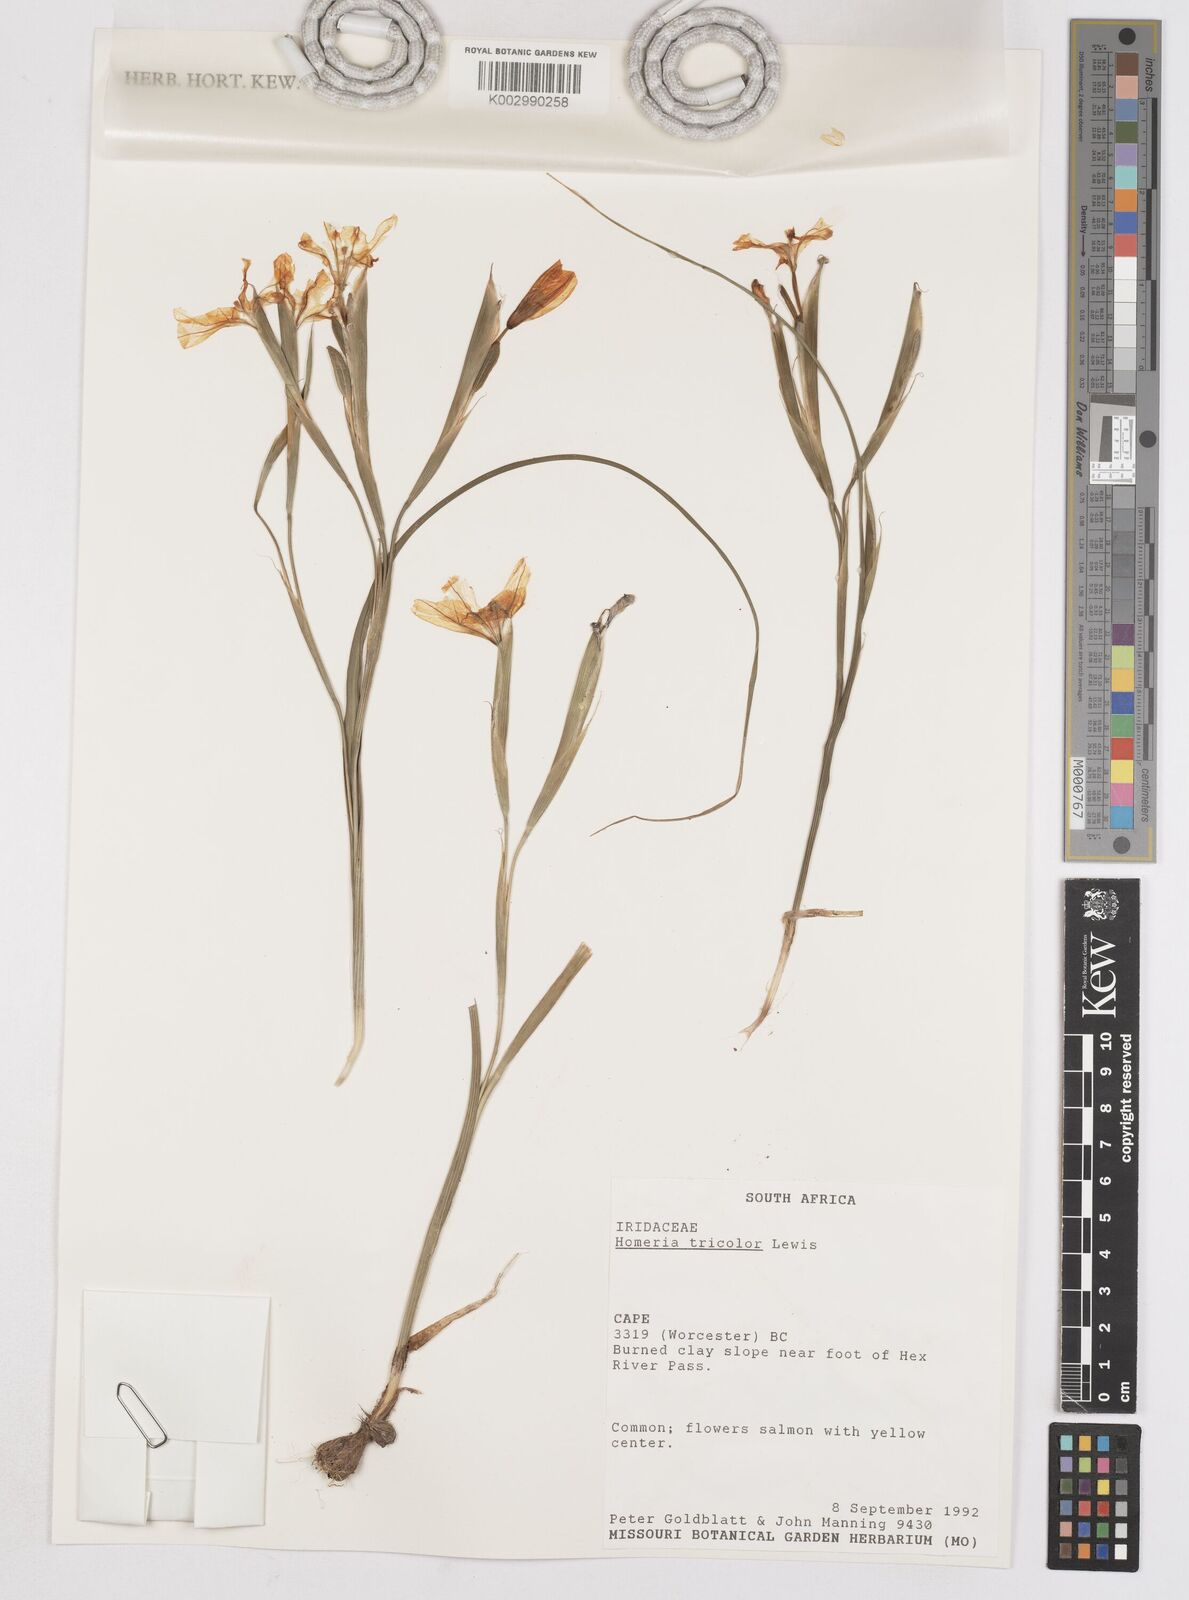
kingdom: Plantae
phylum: Tracheophyta
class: Liliopsida
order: Asparagales
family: Iridaceae
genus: Moraea
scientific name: Moraea
